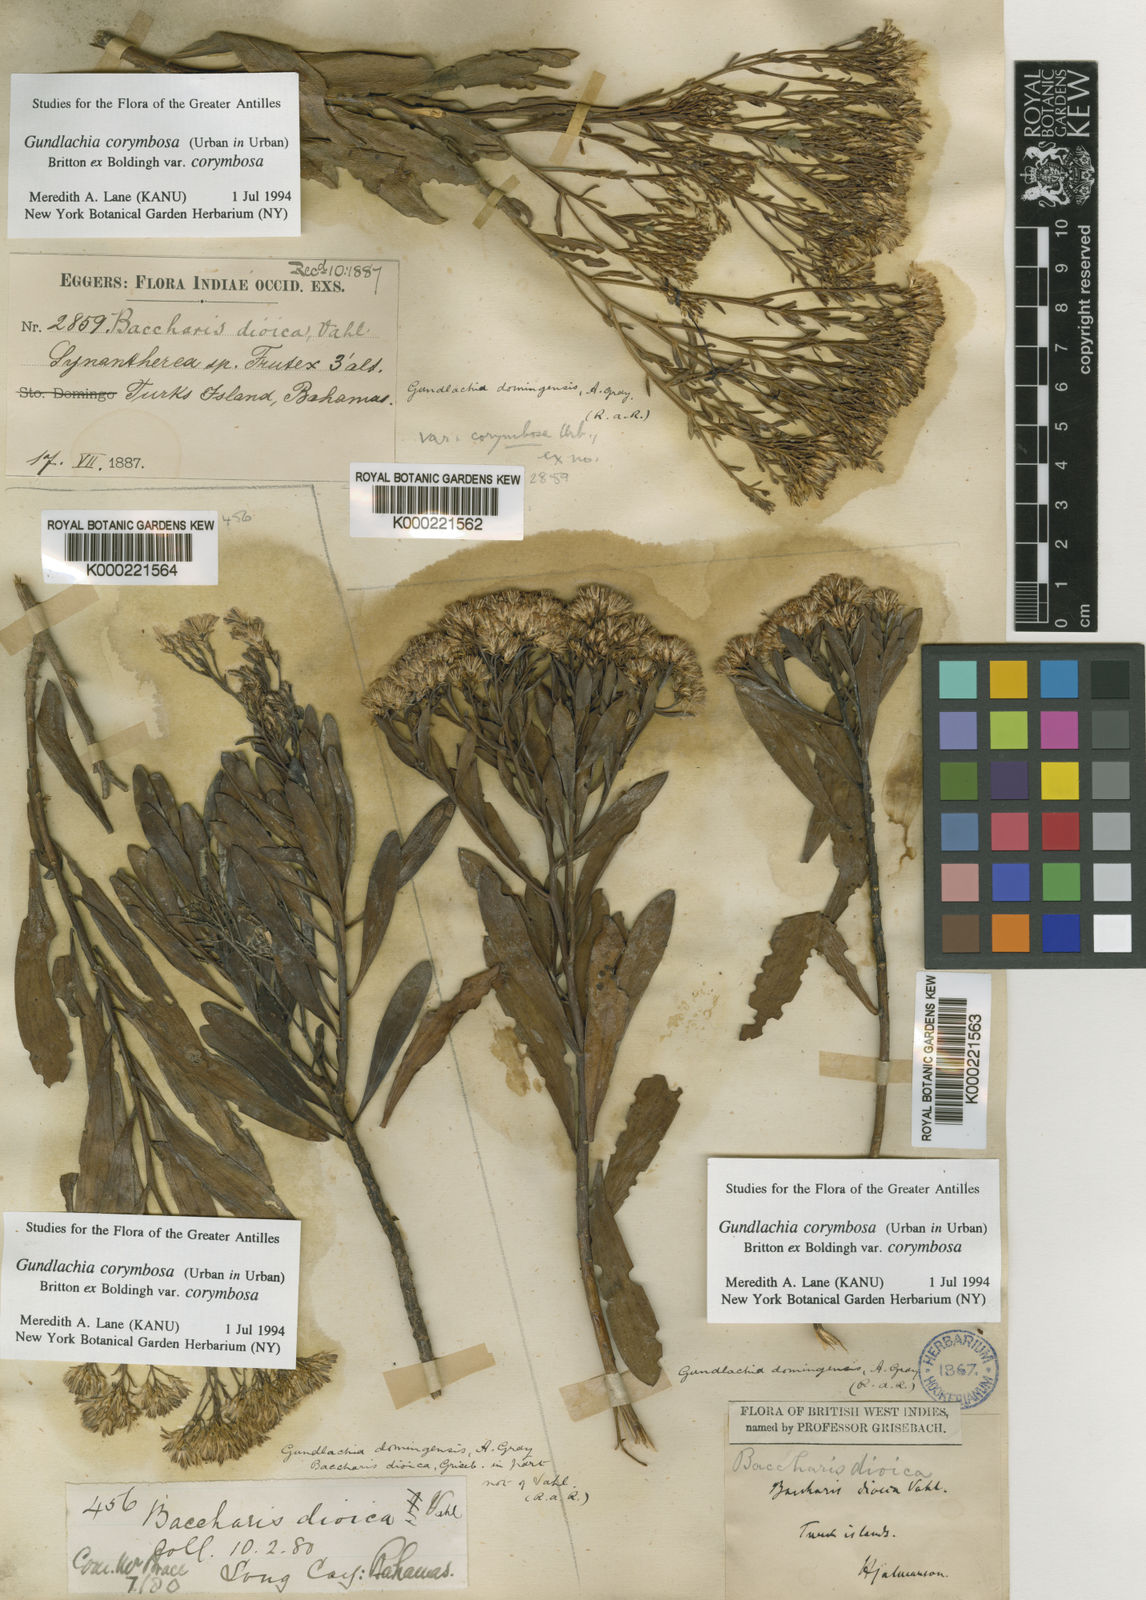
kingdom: Plantae
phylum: Tracheophyta
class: Magnoliopsida
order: Asterales
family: Asteraceae
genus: Gundlachia
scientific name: Gundlachia corymbosa
